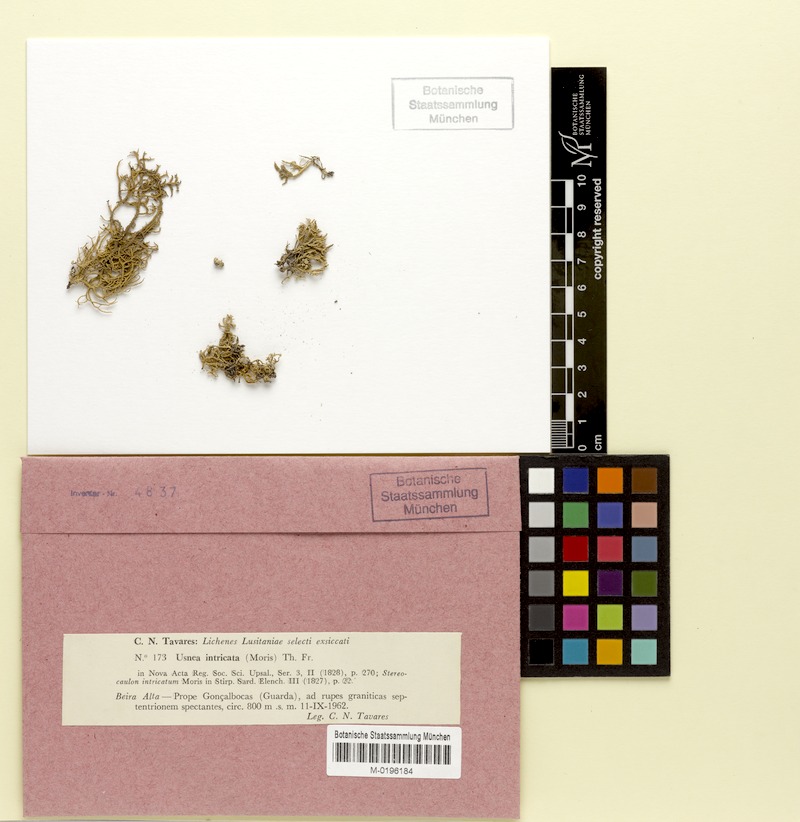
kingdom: Fungi
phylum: Ascomycota
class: Lecanoromycetes
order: Lecanorales
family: Parmeliaceae
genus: Lethariella
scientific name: Lethariella intricata
